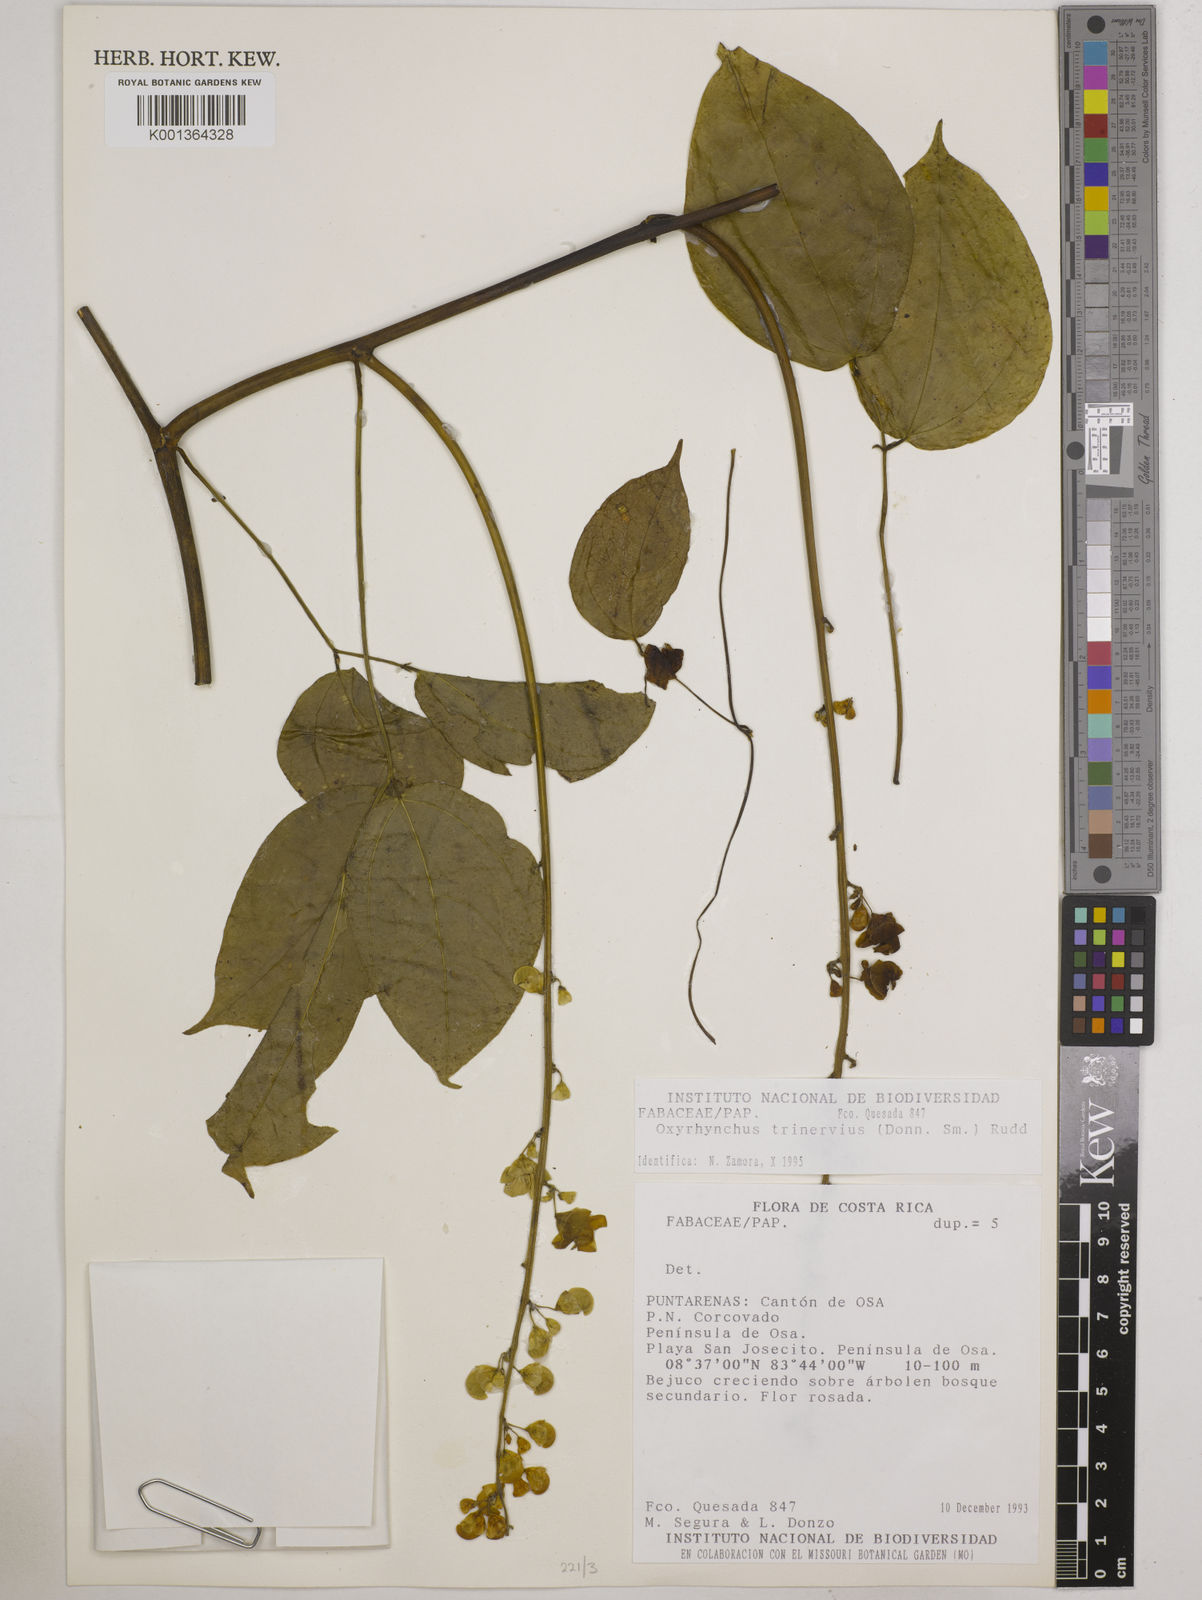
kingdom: Plantae
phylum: Tracheophyta
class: Magnoliopsida
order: Fabales
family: Fabaceae
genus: Oxyrhynchus
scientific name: Oxyrhynchus trinervius
